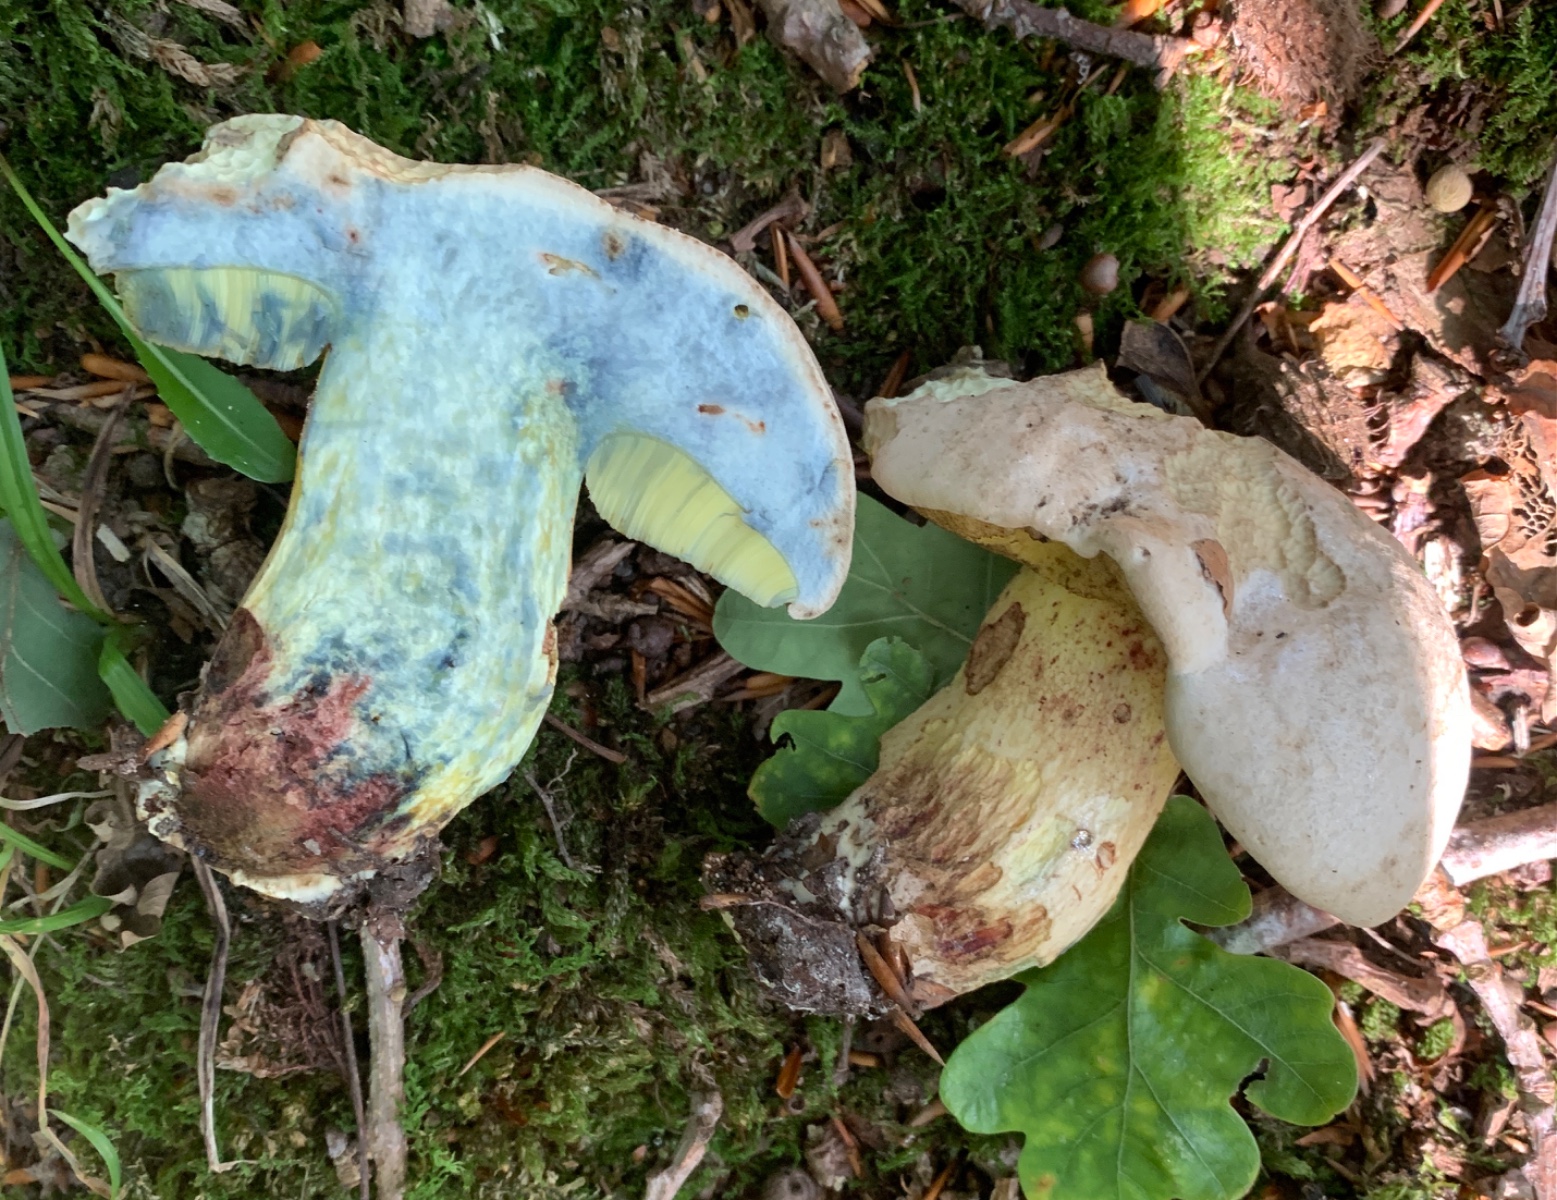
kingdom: Fungi
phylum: Basidiomycota
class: Agaricomycetes
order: Boletales
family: Boletaceae
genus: Caloboletus
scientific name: Caloboletus radicans
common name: rod-rørhat
